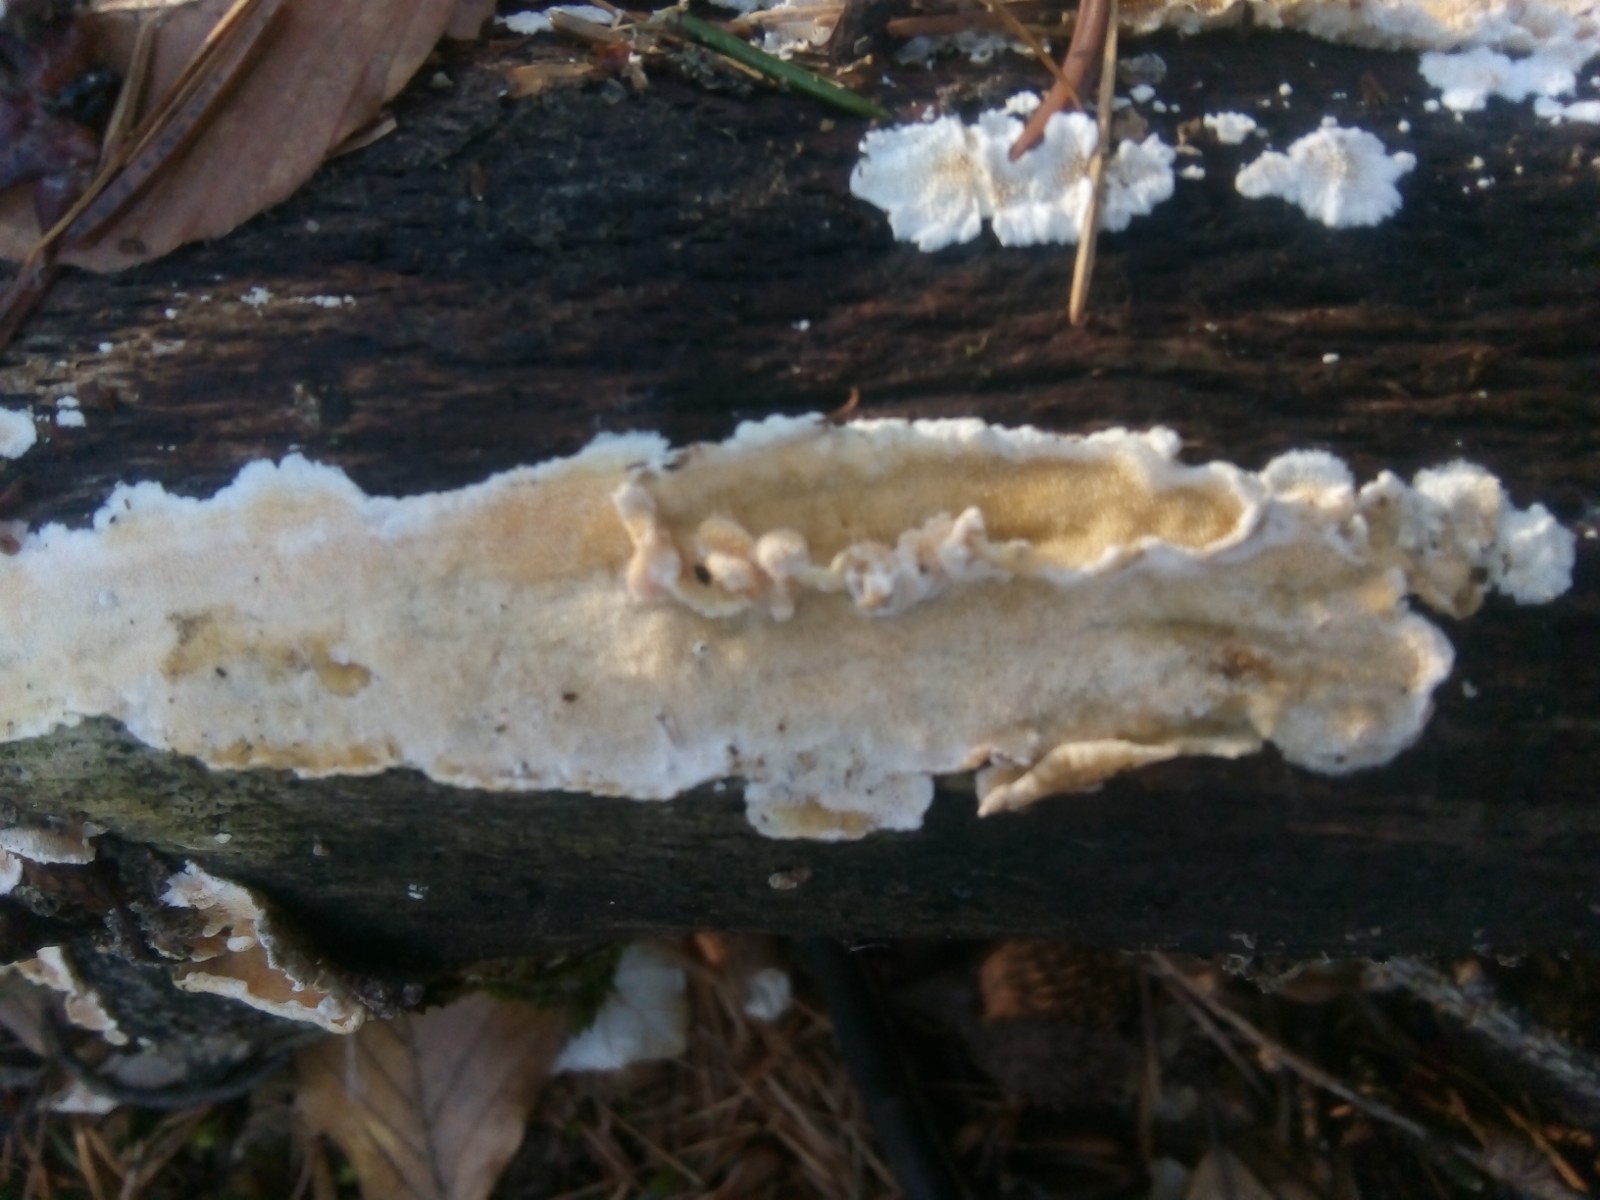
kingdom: Fungi
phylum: Basidiomycota
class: Agaricomycetes
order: Polyporales
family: Steccherinaceae
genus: Steccherinum
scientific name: Steccherinum ochraceum
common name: almindelig skønpig
